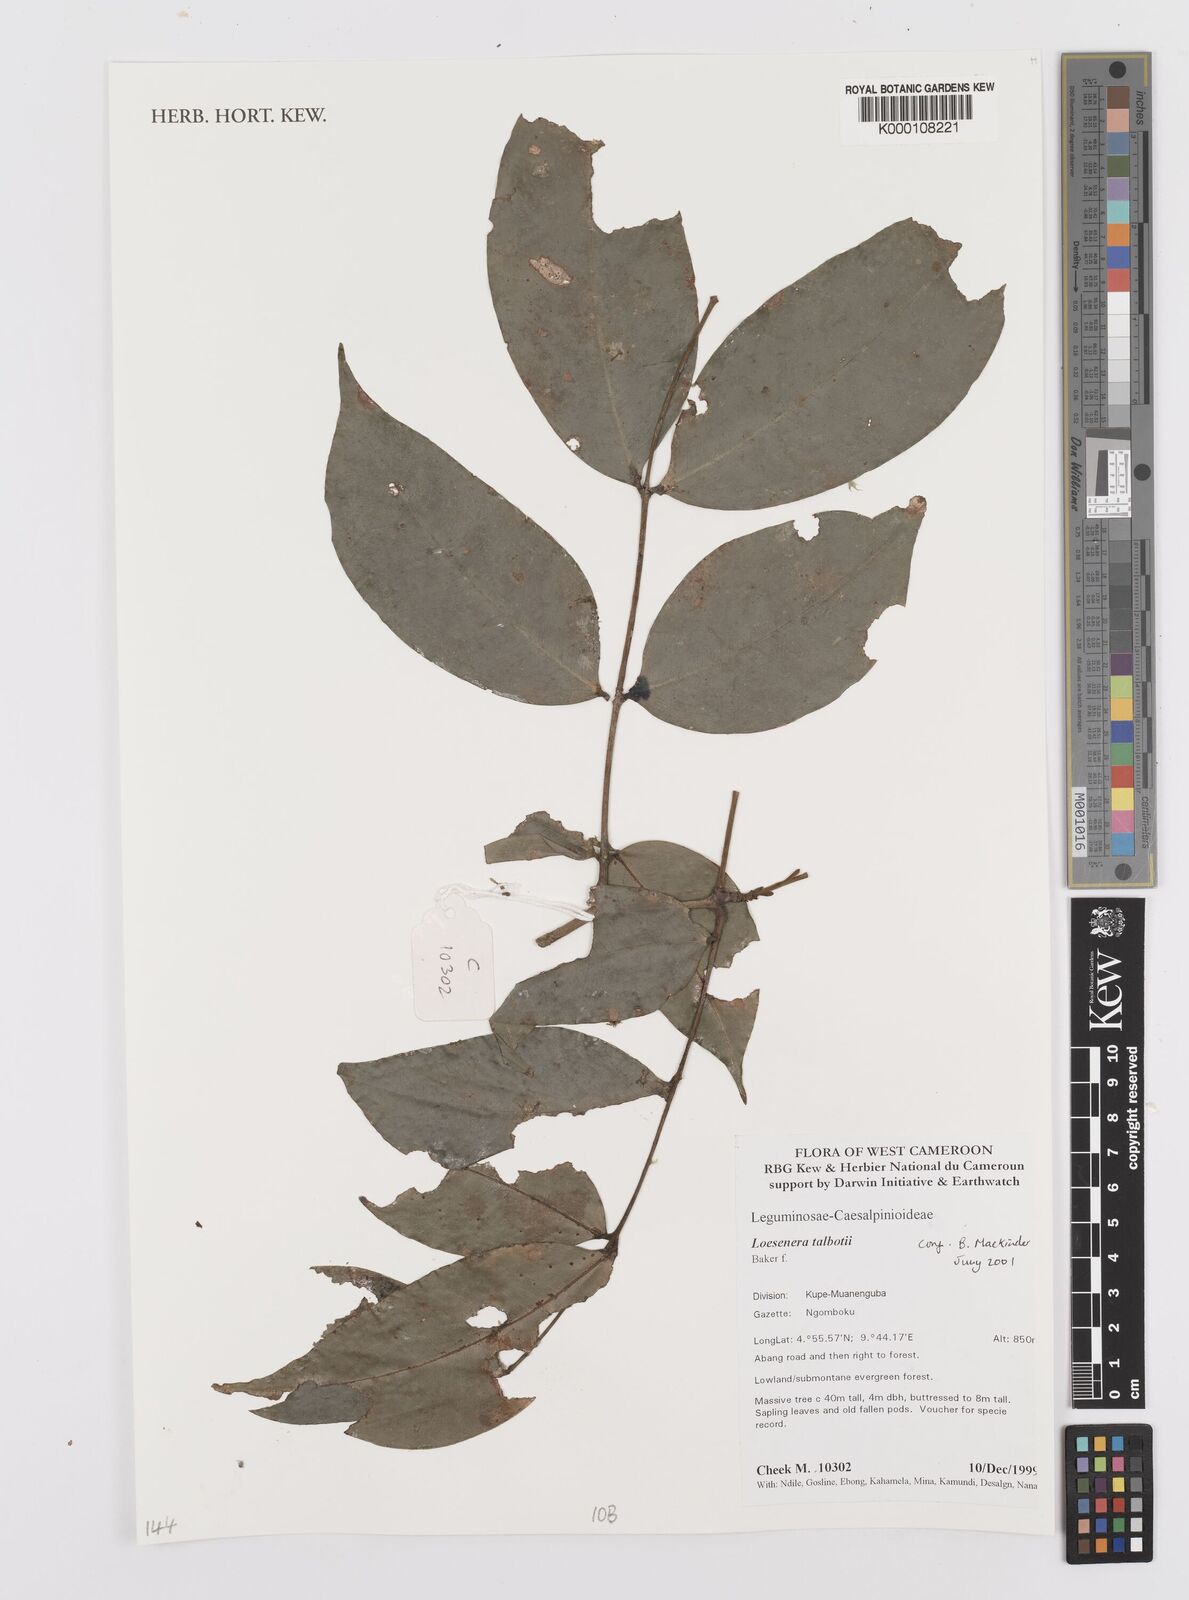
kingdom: Plantae
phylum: Tracheophyta
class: Magnoliopsida
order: Fabales
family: Fabaceae
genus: Loesenera
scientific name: Loesenera talbotii
